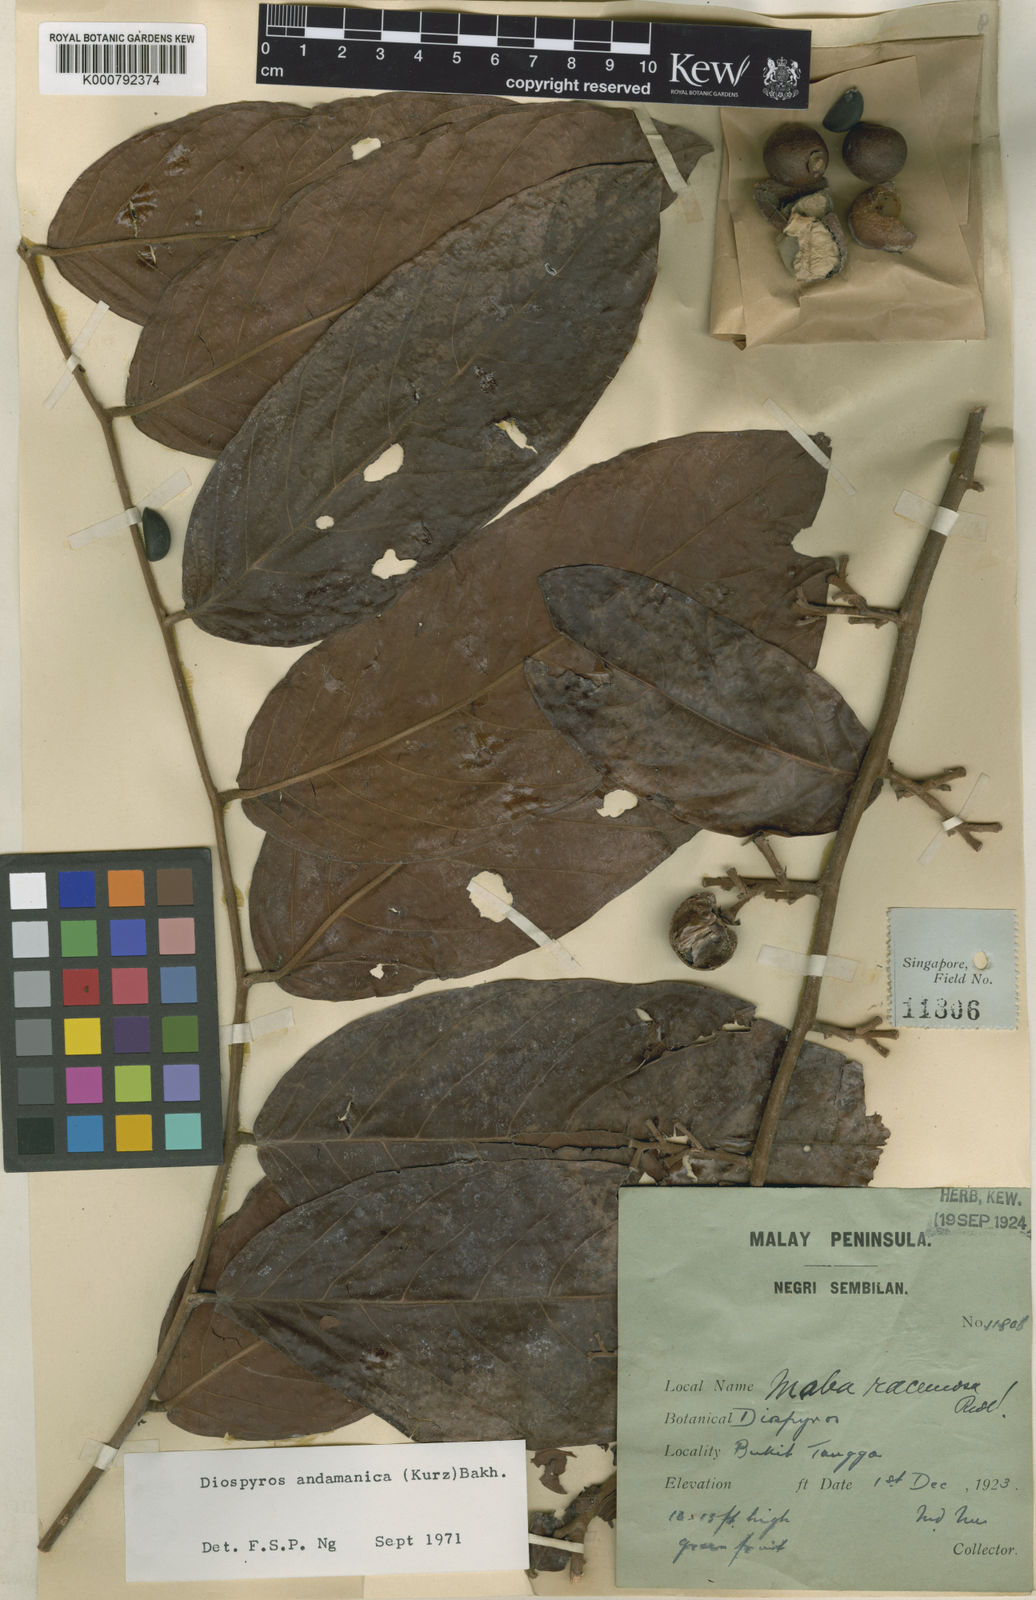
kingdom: Plantae
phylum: Tracheophyta
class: Magnoliopsida
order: Ericales
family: Ebenaceae
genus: Diospyros
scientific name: Diospyros andamanica
